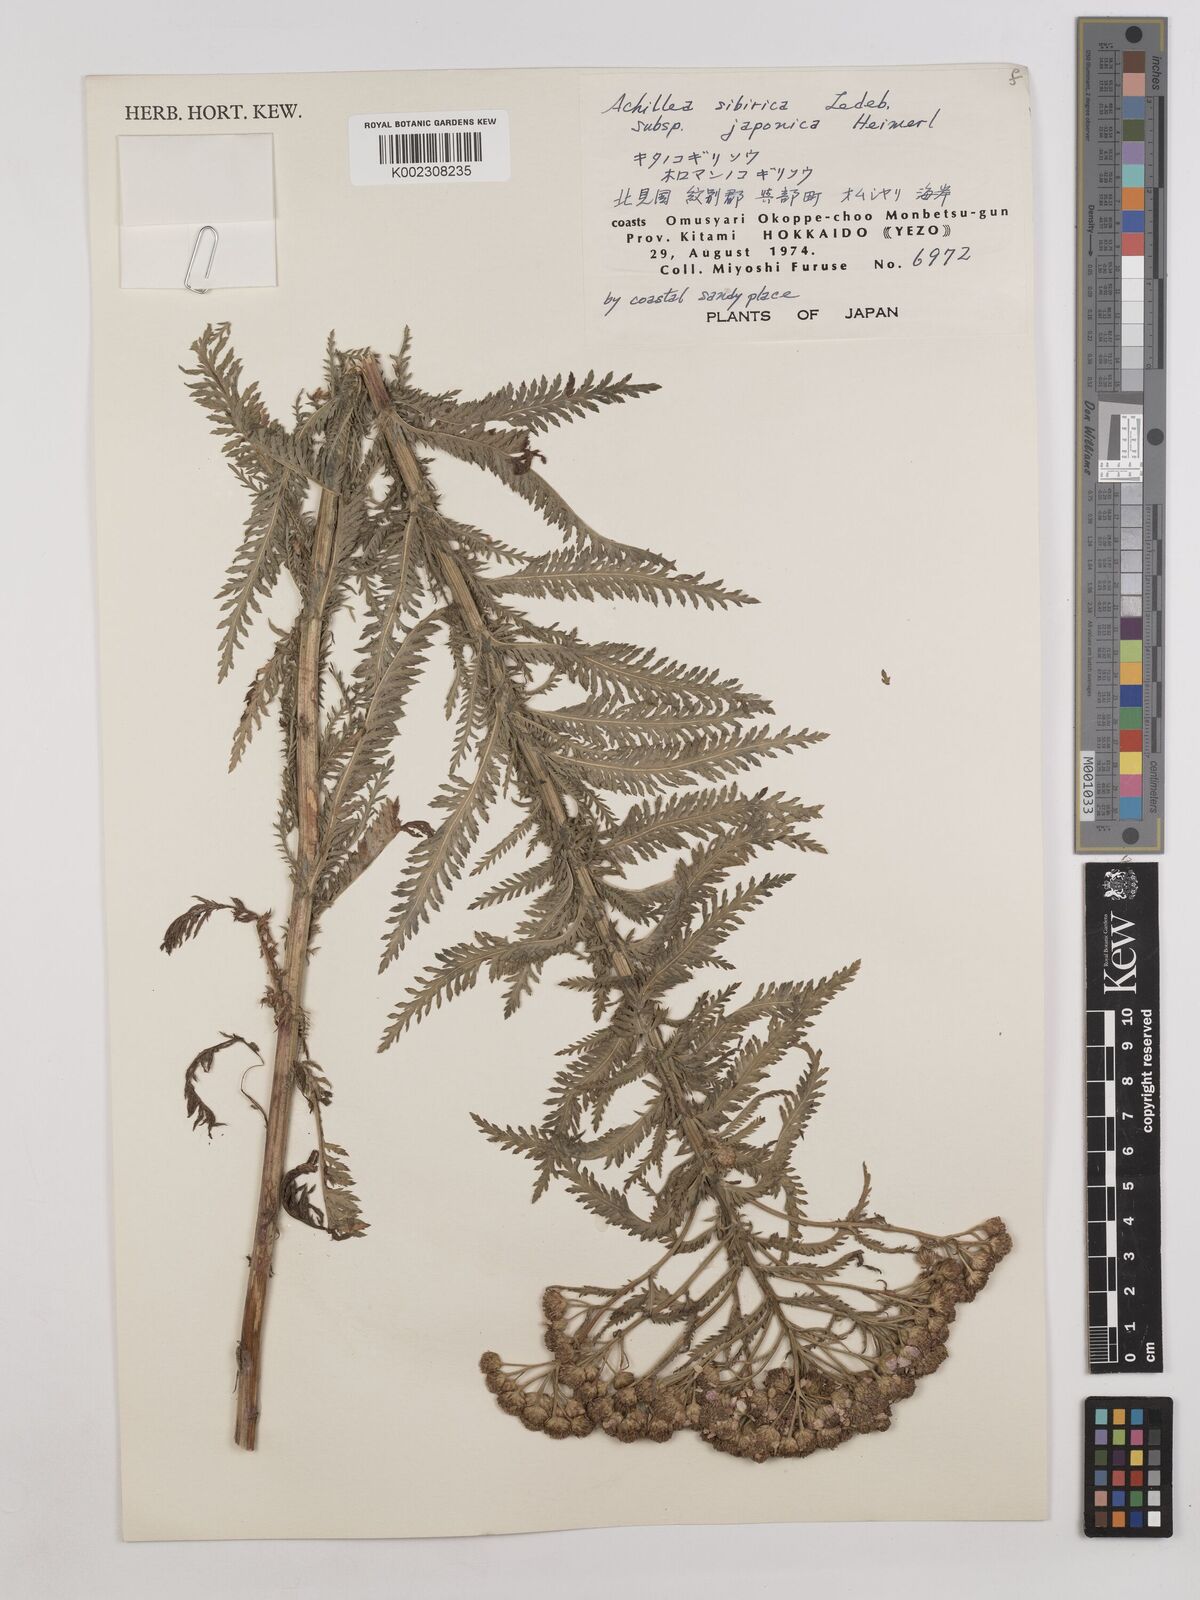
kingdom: Plantae
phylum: Tracheophyta
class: Magnoliopsida
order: Asterales
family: Asteraceae
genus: Achillea
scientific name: Achillea alpina
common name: Siberian yarrow
